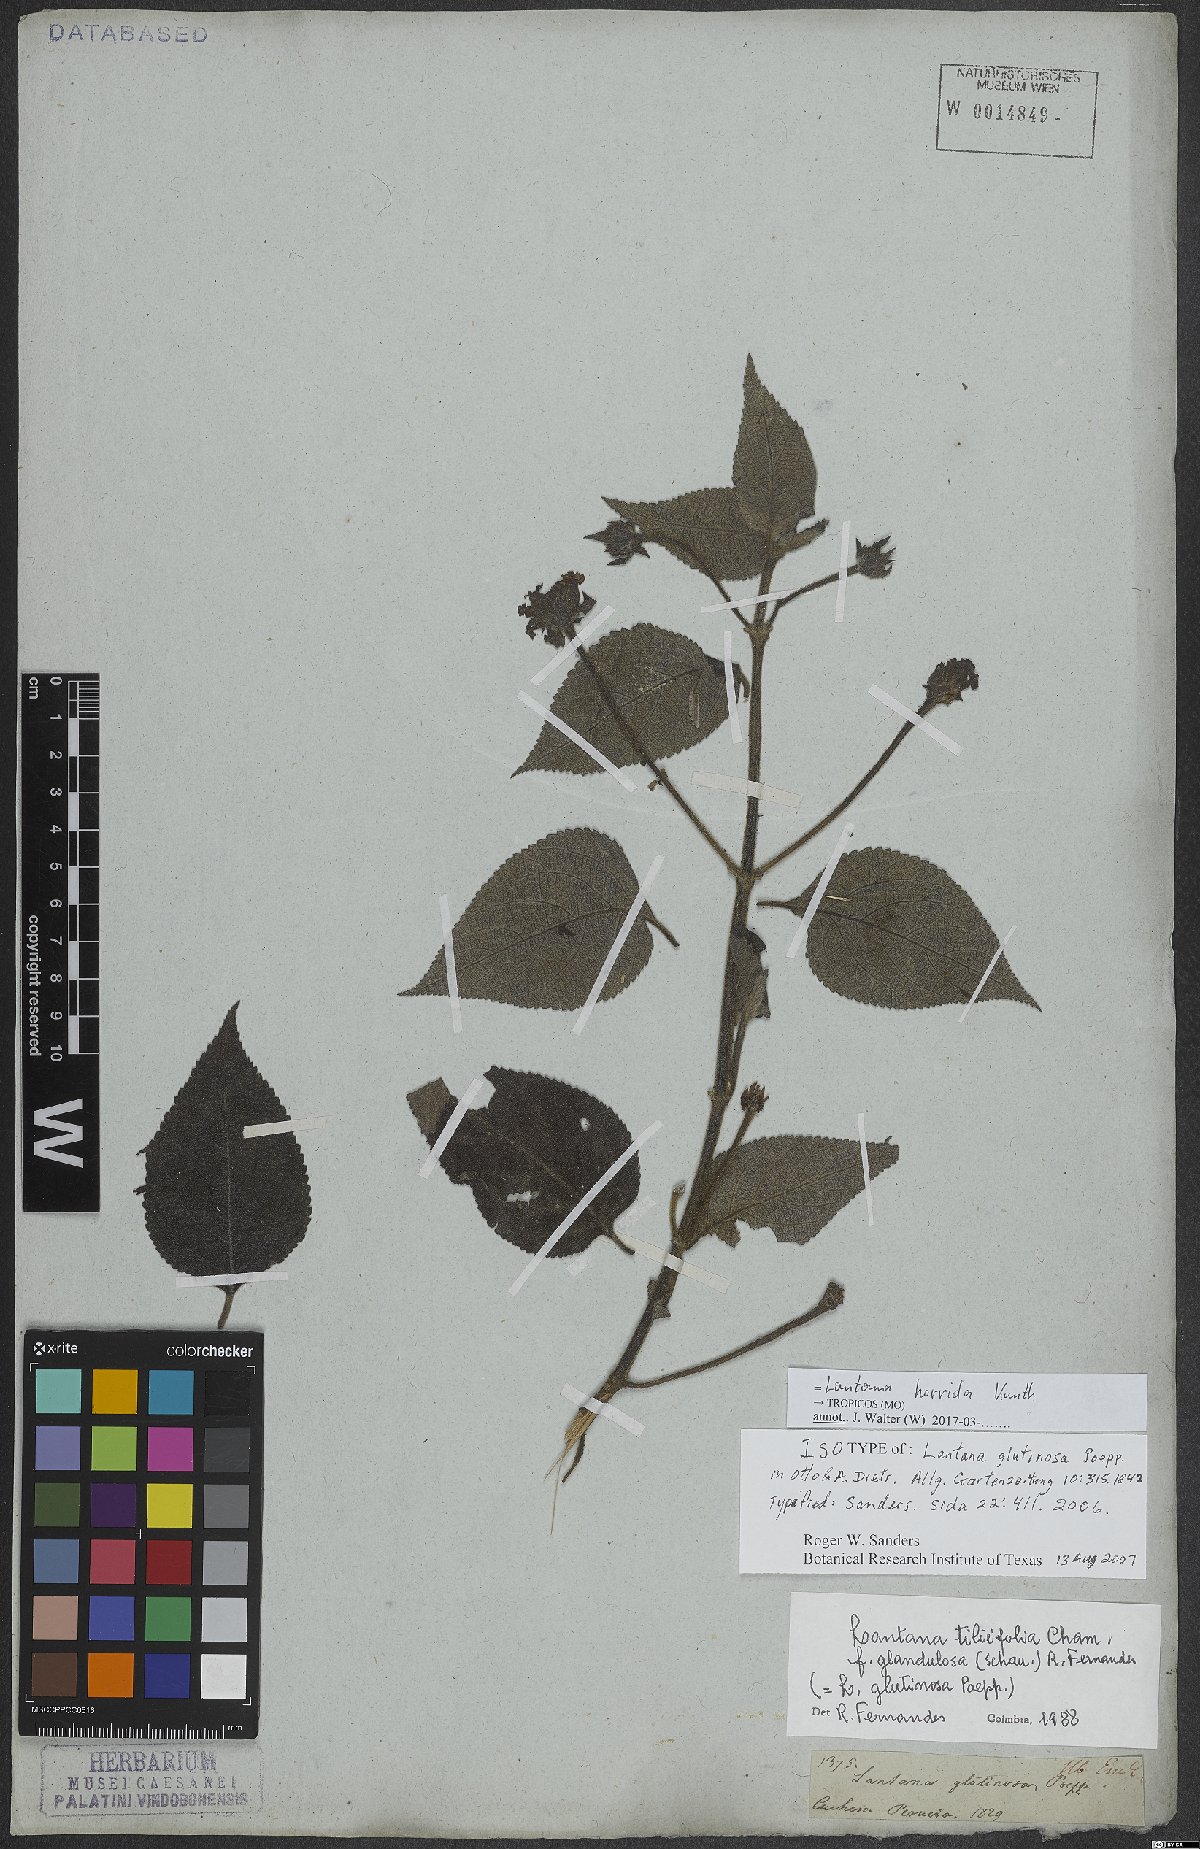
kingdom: Plantae
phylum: Tracheophyta
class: Magnoliopsida
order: Lamiales
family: Verbenaceae
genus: Lantana
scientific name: Lantana horrida
